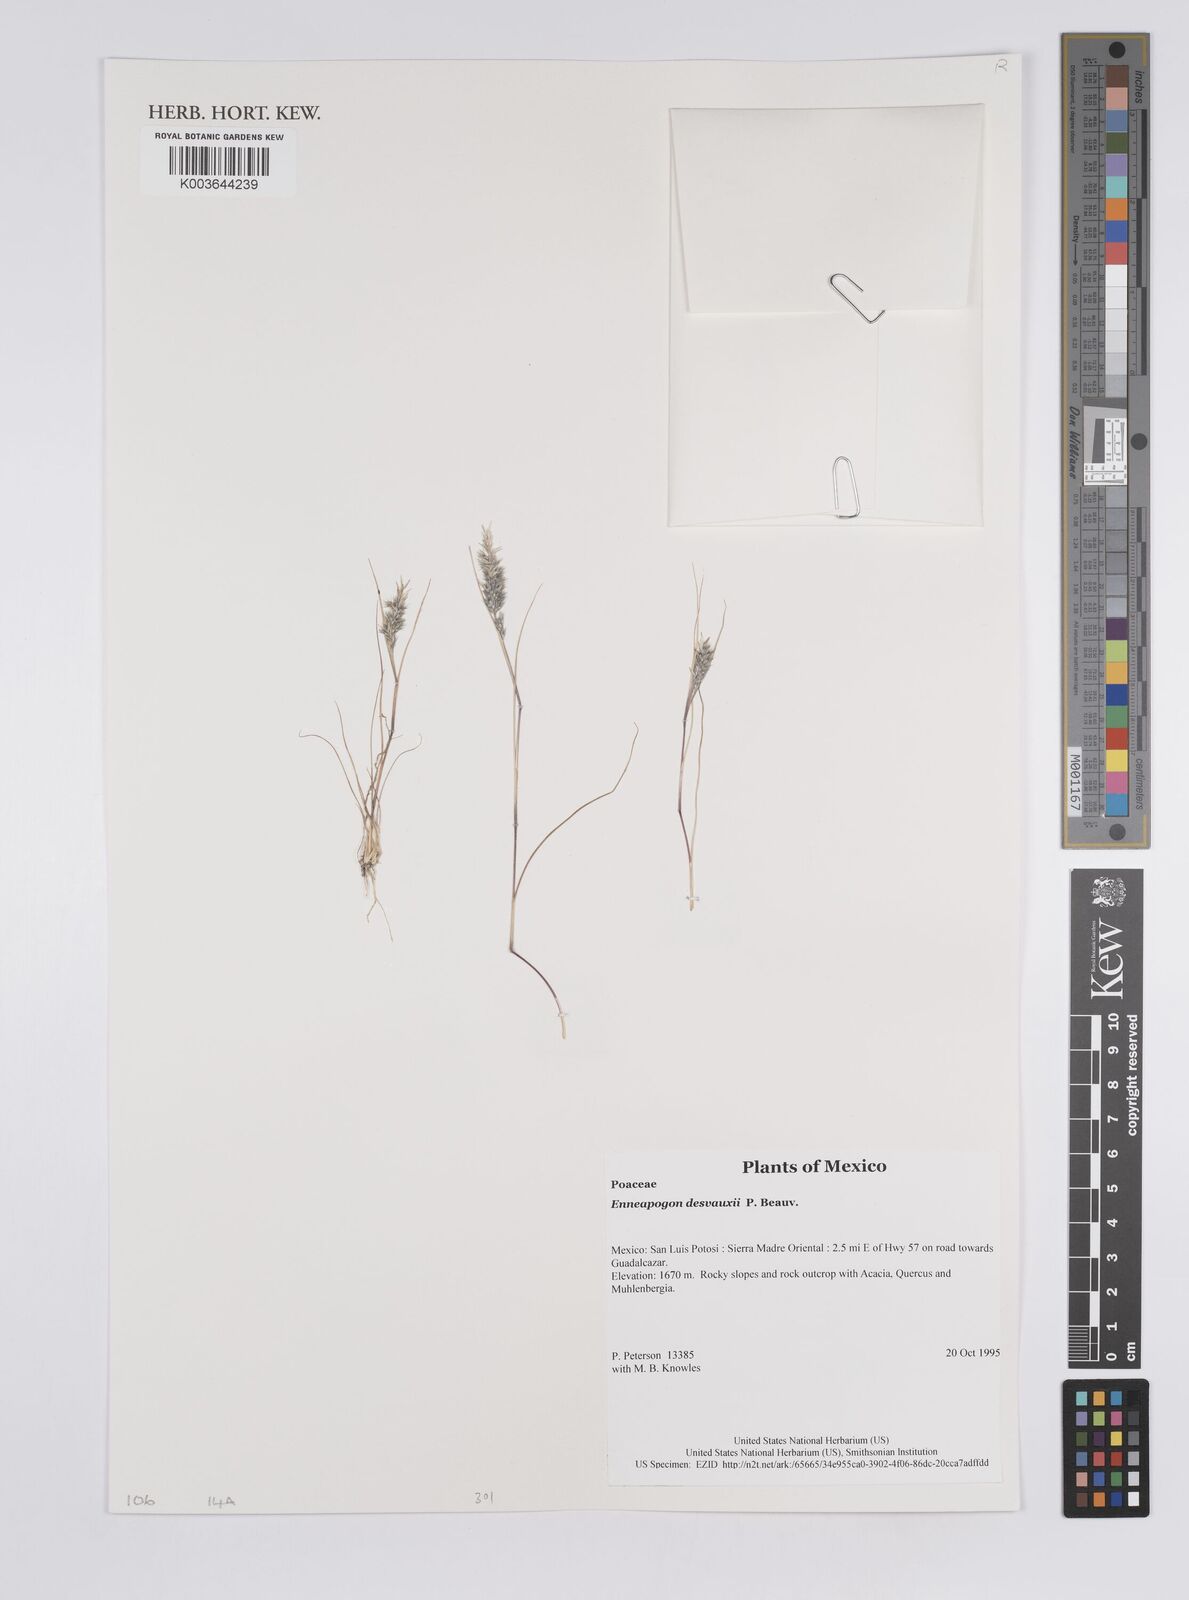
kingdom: Plantae
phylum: Tracheophyta
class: Liliopsida
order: Poales
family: Poaceae
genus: Enneapogon
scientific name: Enneapogon desvauxii
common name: Feather pappus grass
